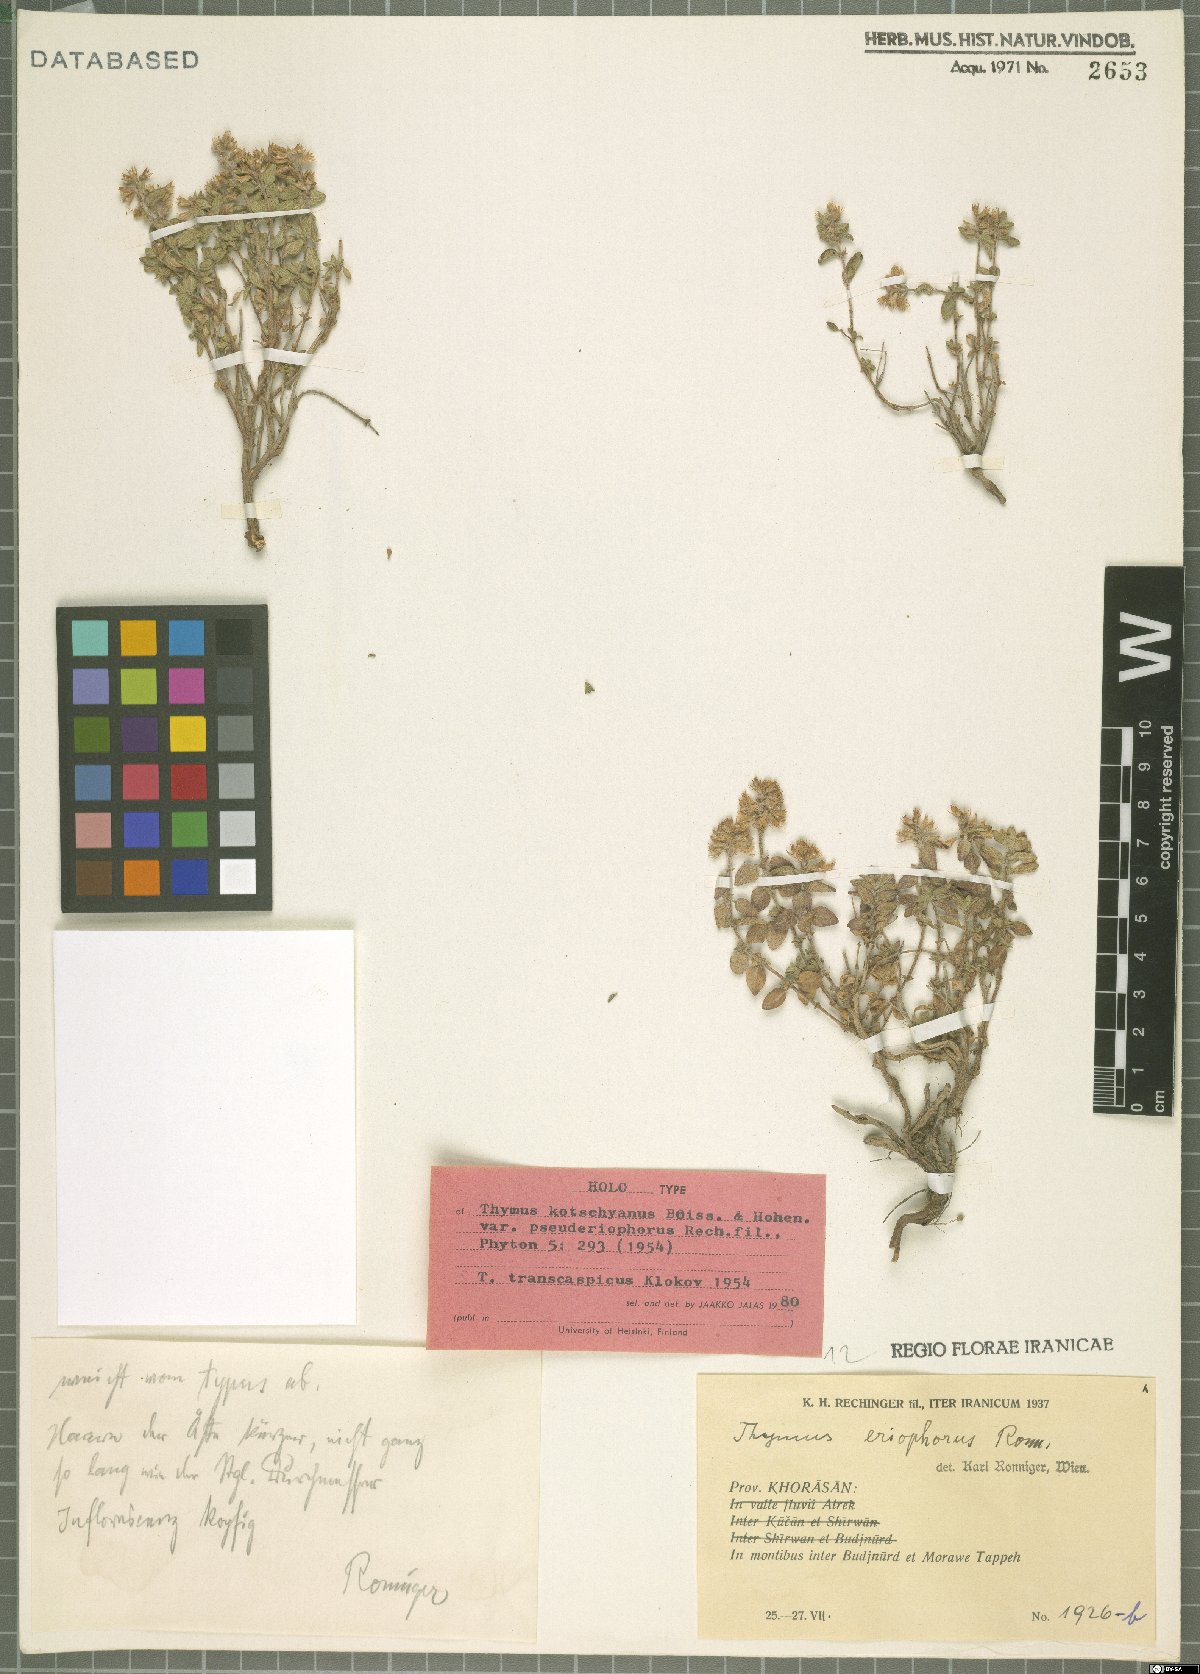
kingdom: Plantae
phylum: Tracheophyta
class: Magnoliopsida
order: Lamiales
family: Lamiaceae
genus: Thymus
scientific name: Thymus transcaspicus
